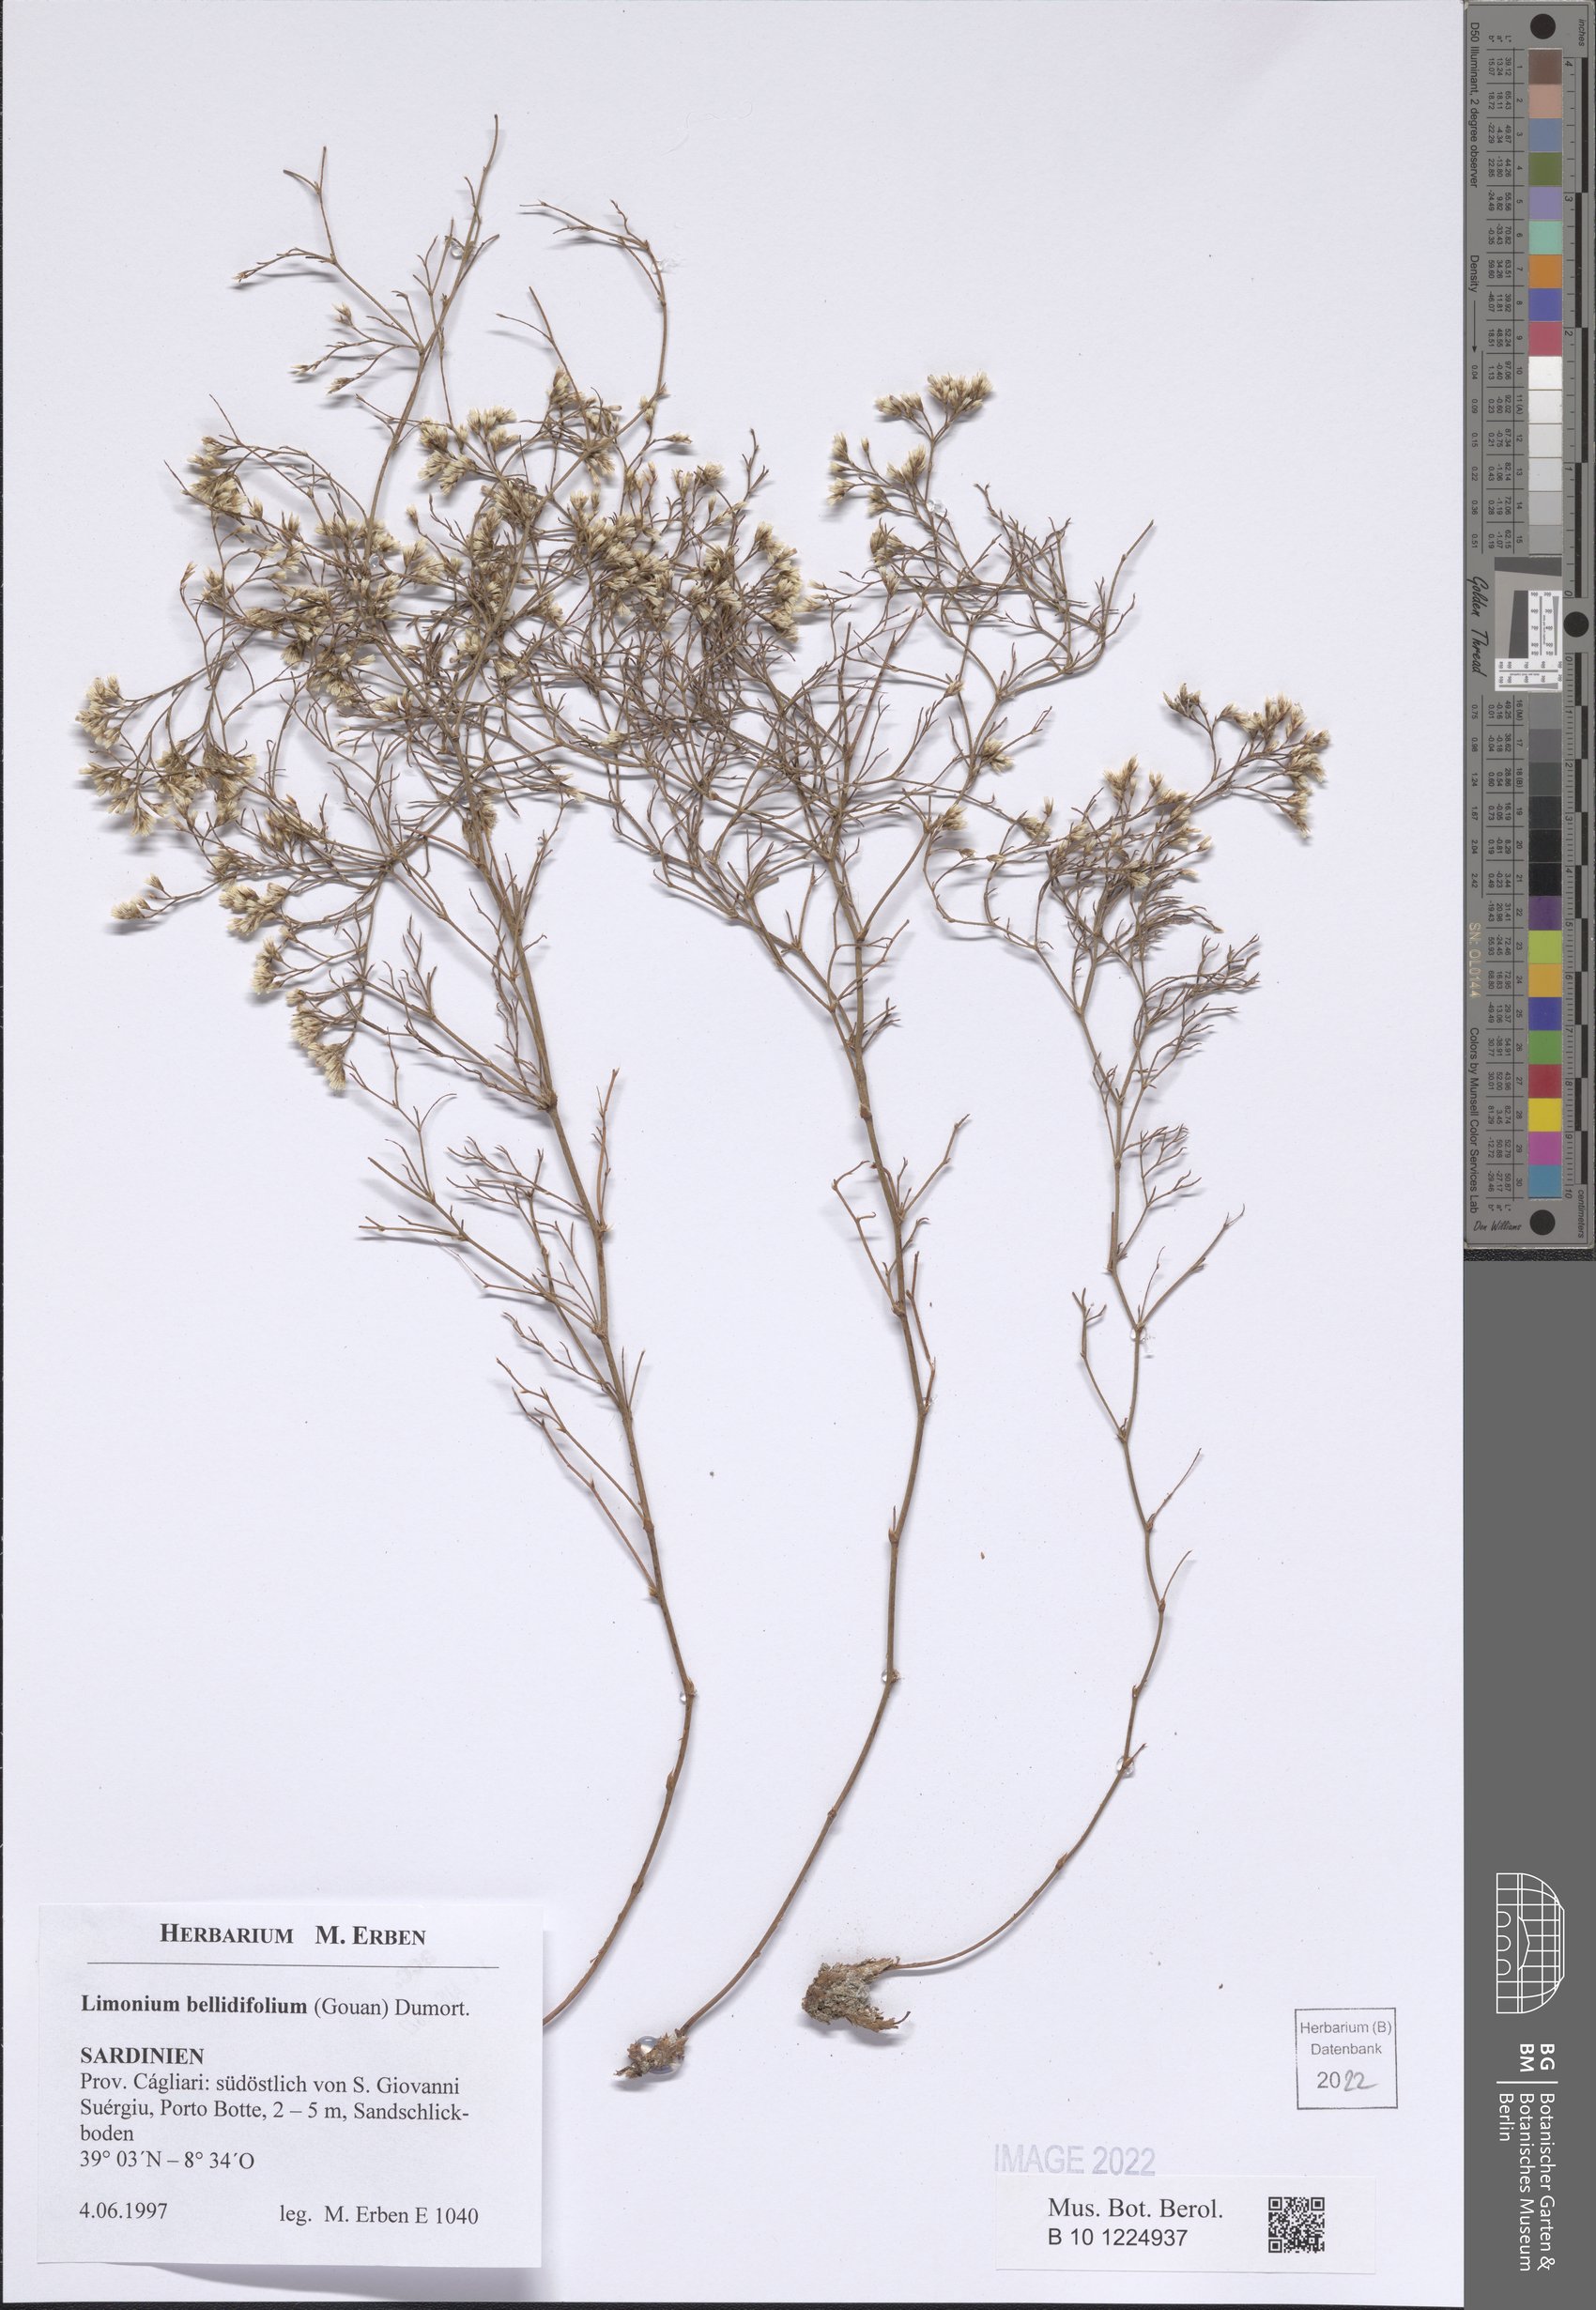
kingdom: Plantae
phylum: Tracheophyta
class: Magnoliopsida
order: Caryophyllales
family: Plumbaginaceae
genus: Limonium
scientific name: Limonium bellidifolium
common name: Matted sea-lavender
